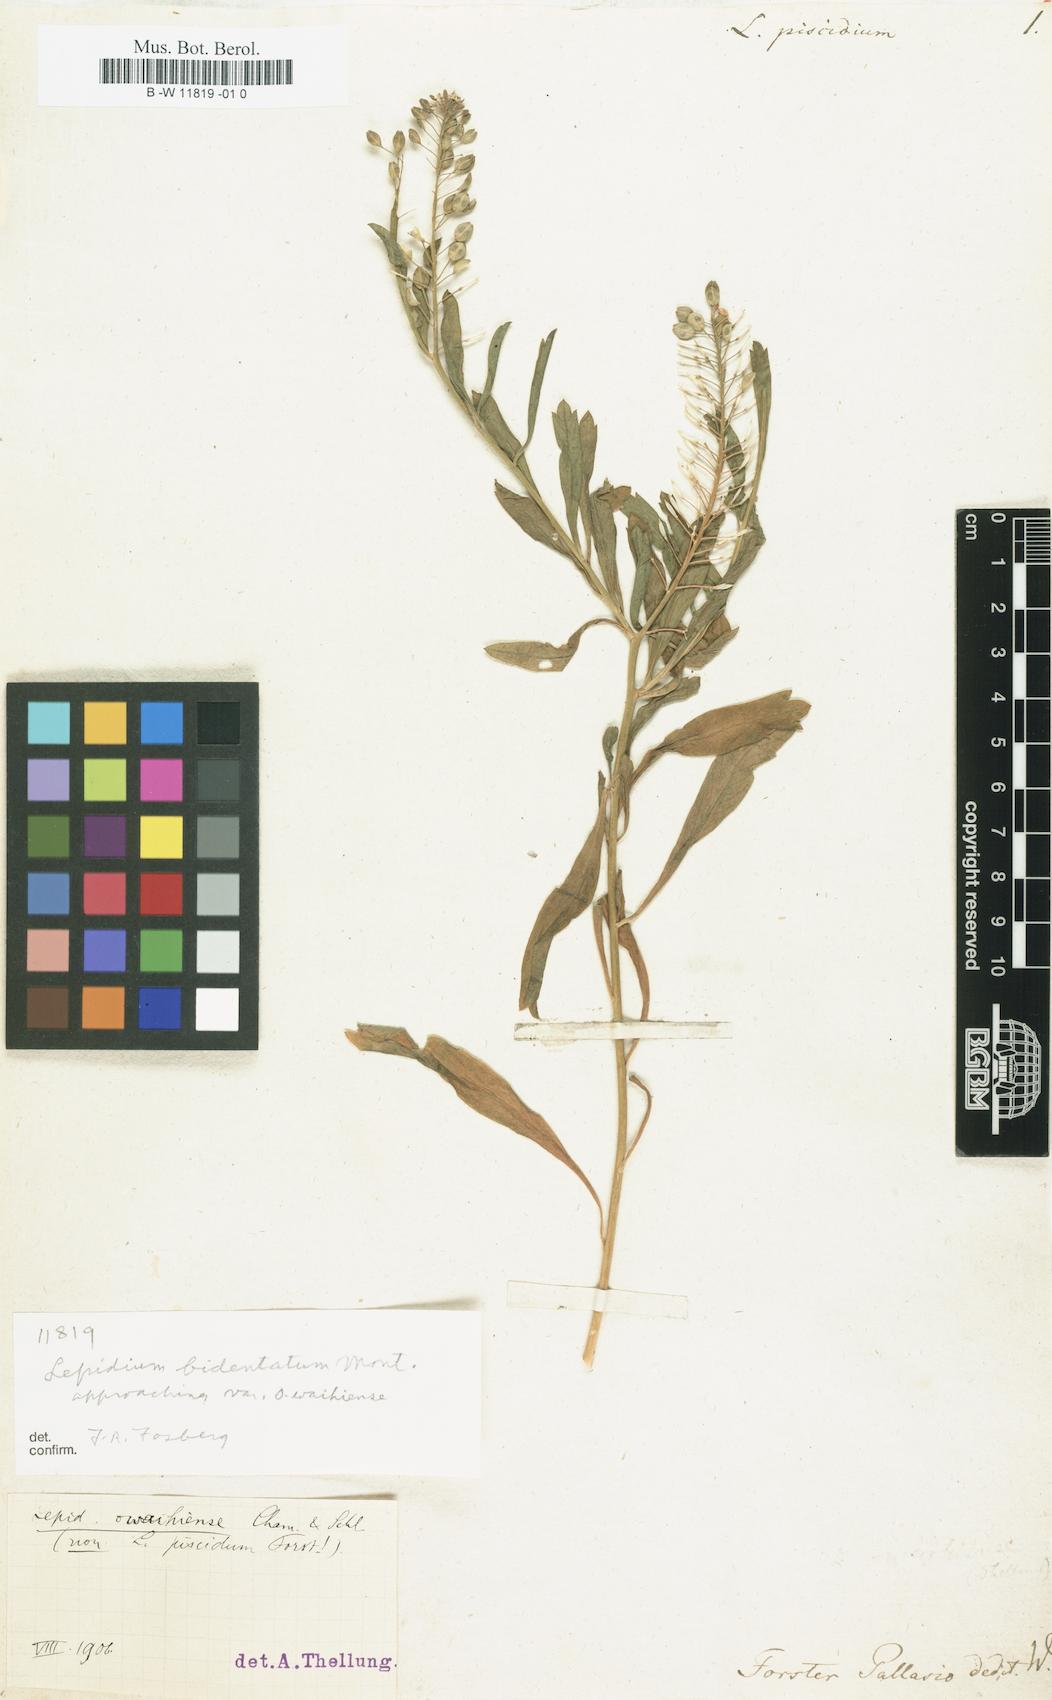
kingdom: Plantae
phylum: Tracheophyta
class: Magnoliopsida
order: Brassicales
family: Brassicaceae
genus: Lepidium
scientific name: Lepidium bidentatum
